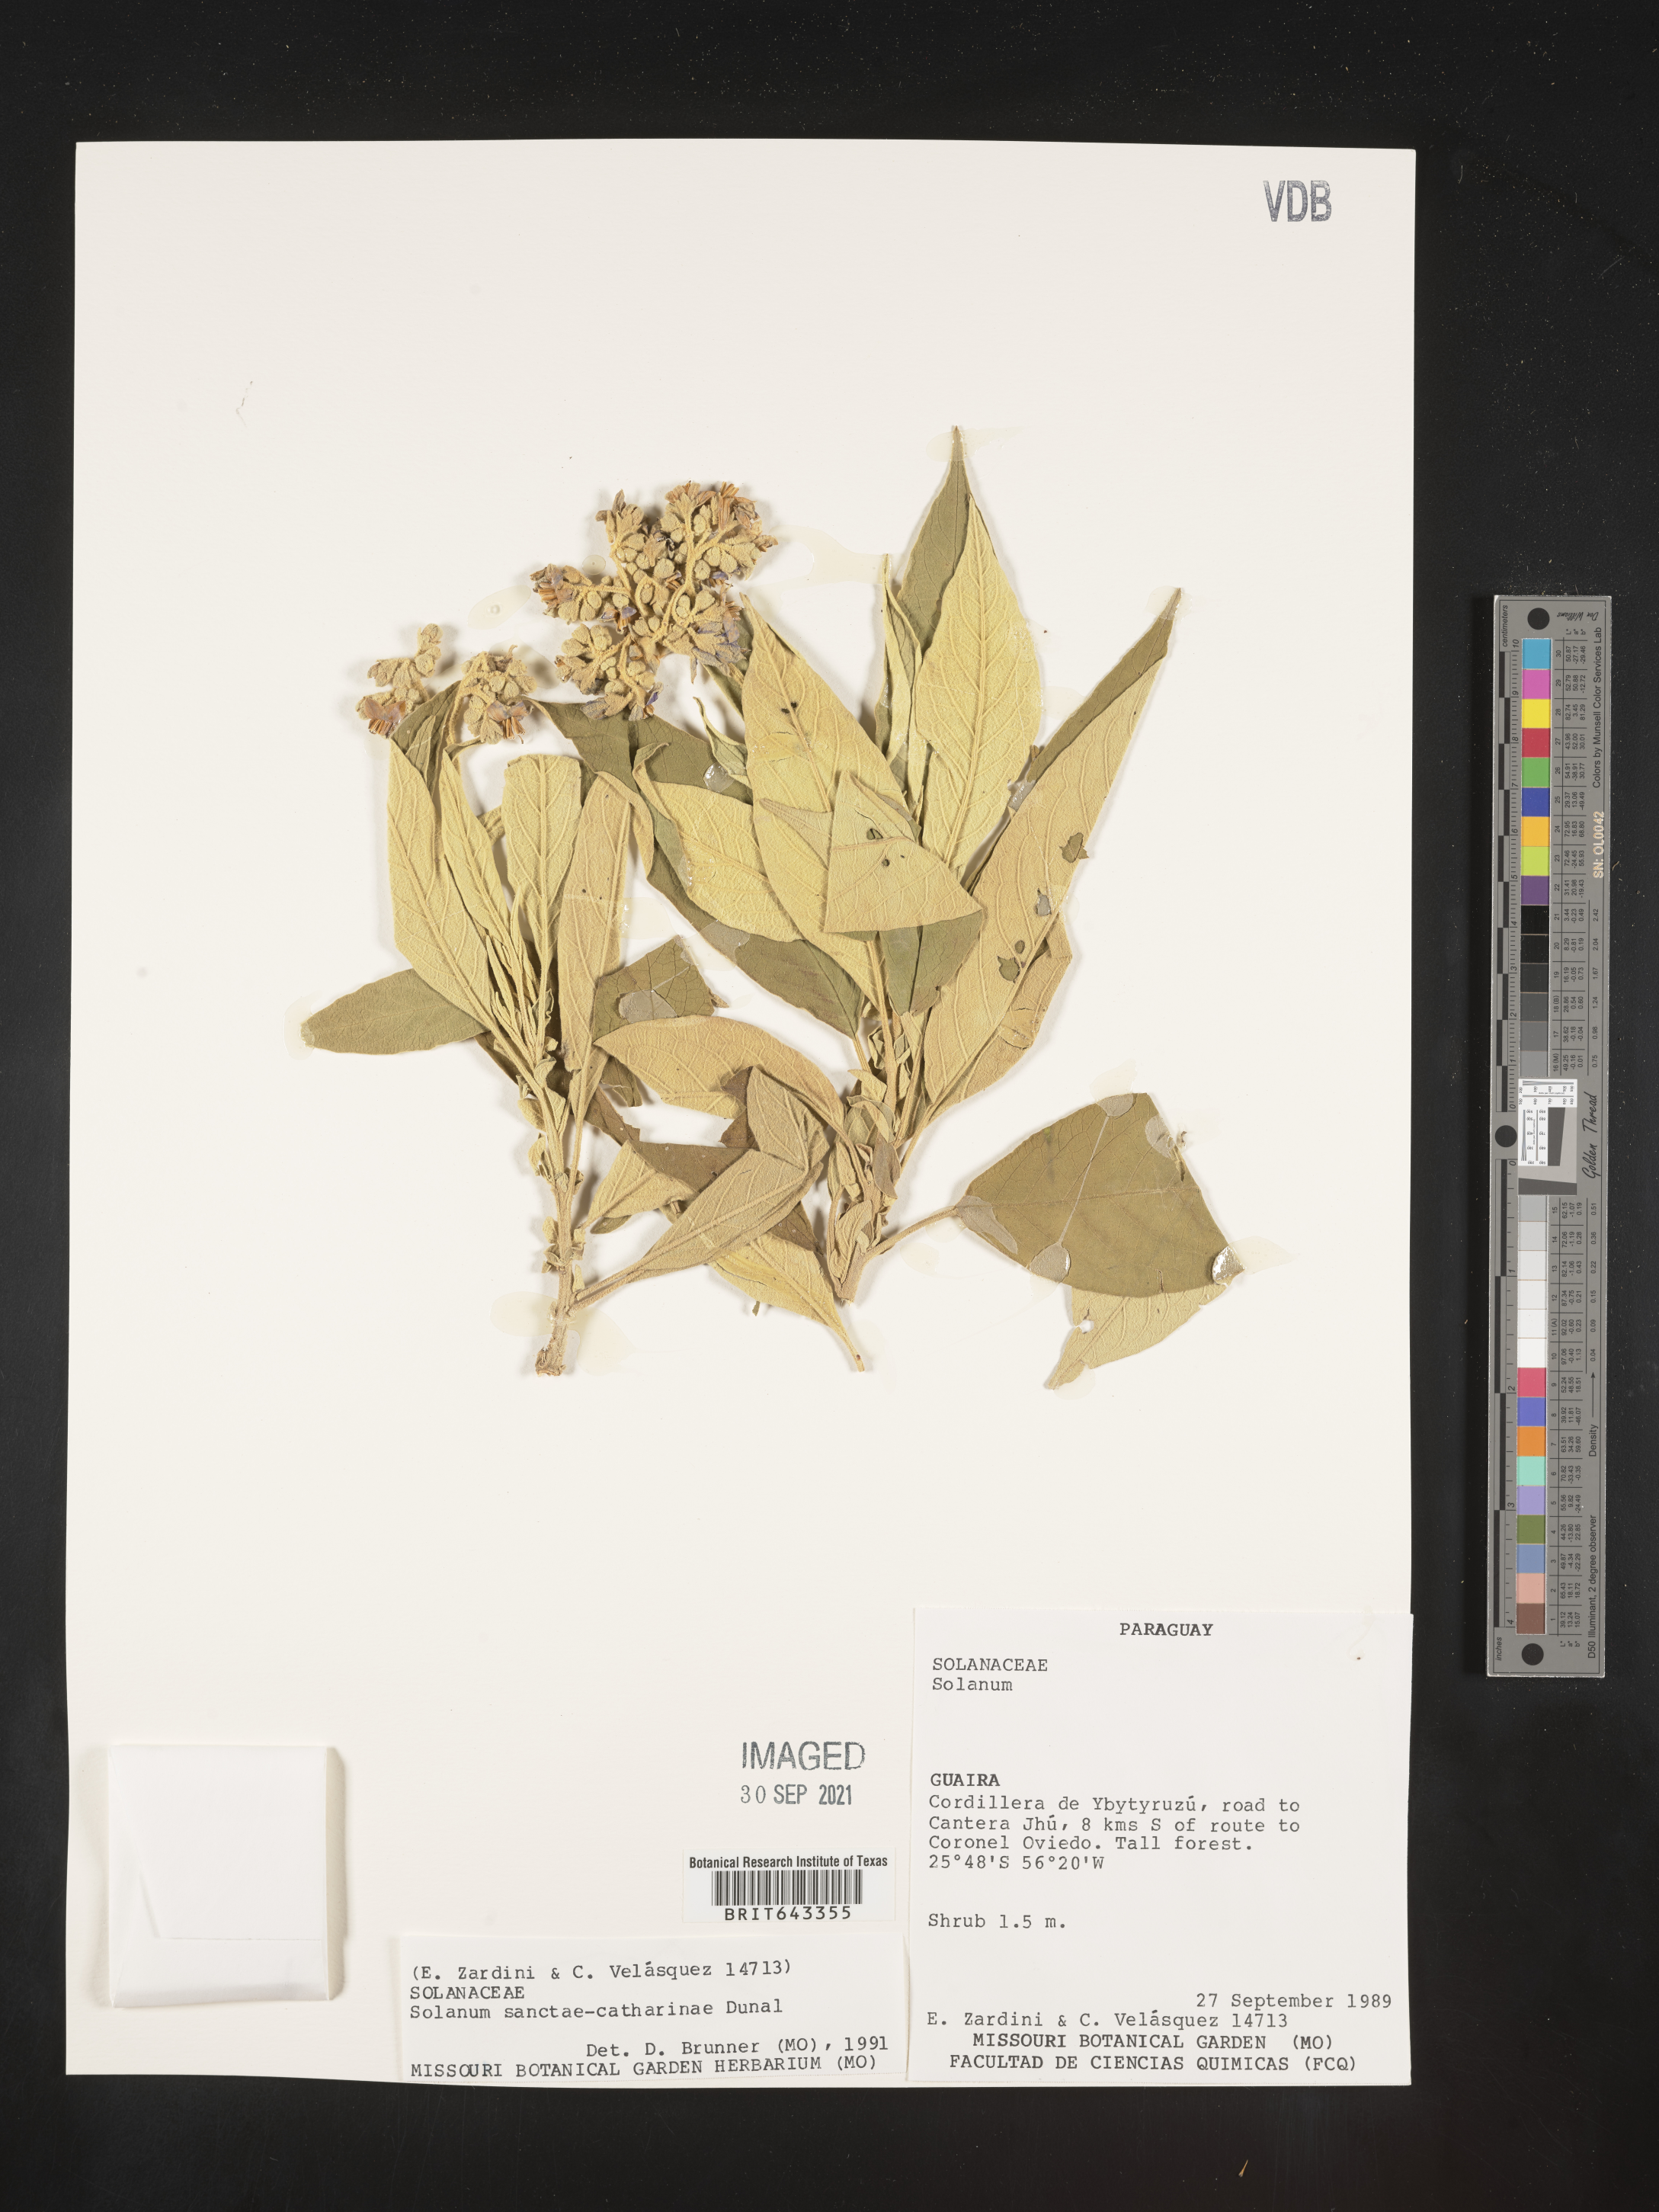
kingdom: Plantae
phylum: Tracheophyta
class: Magnoliopsida
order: Solanales
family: Solanaceae
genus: Solanum
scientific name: Solanum
